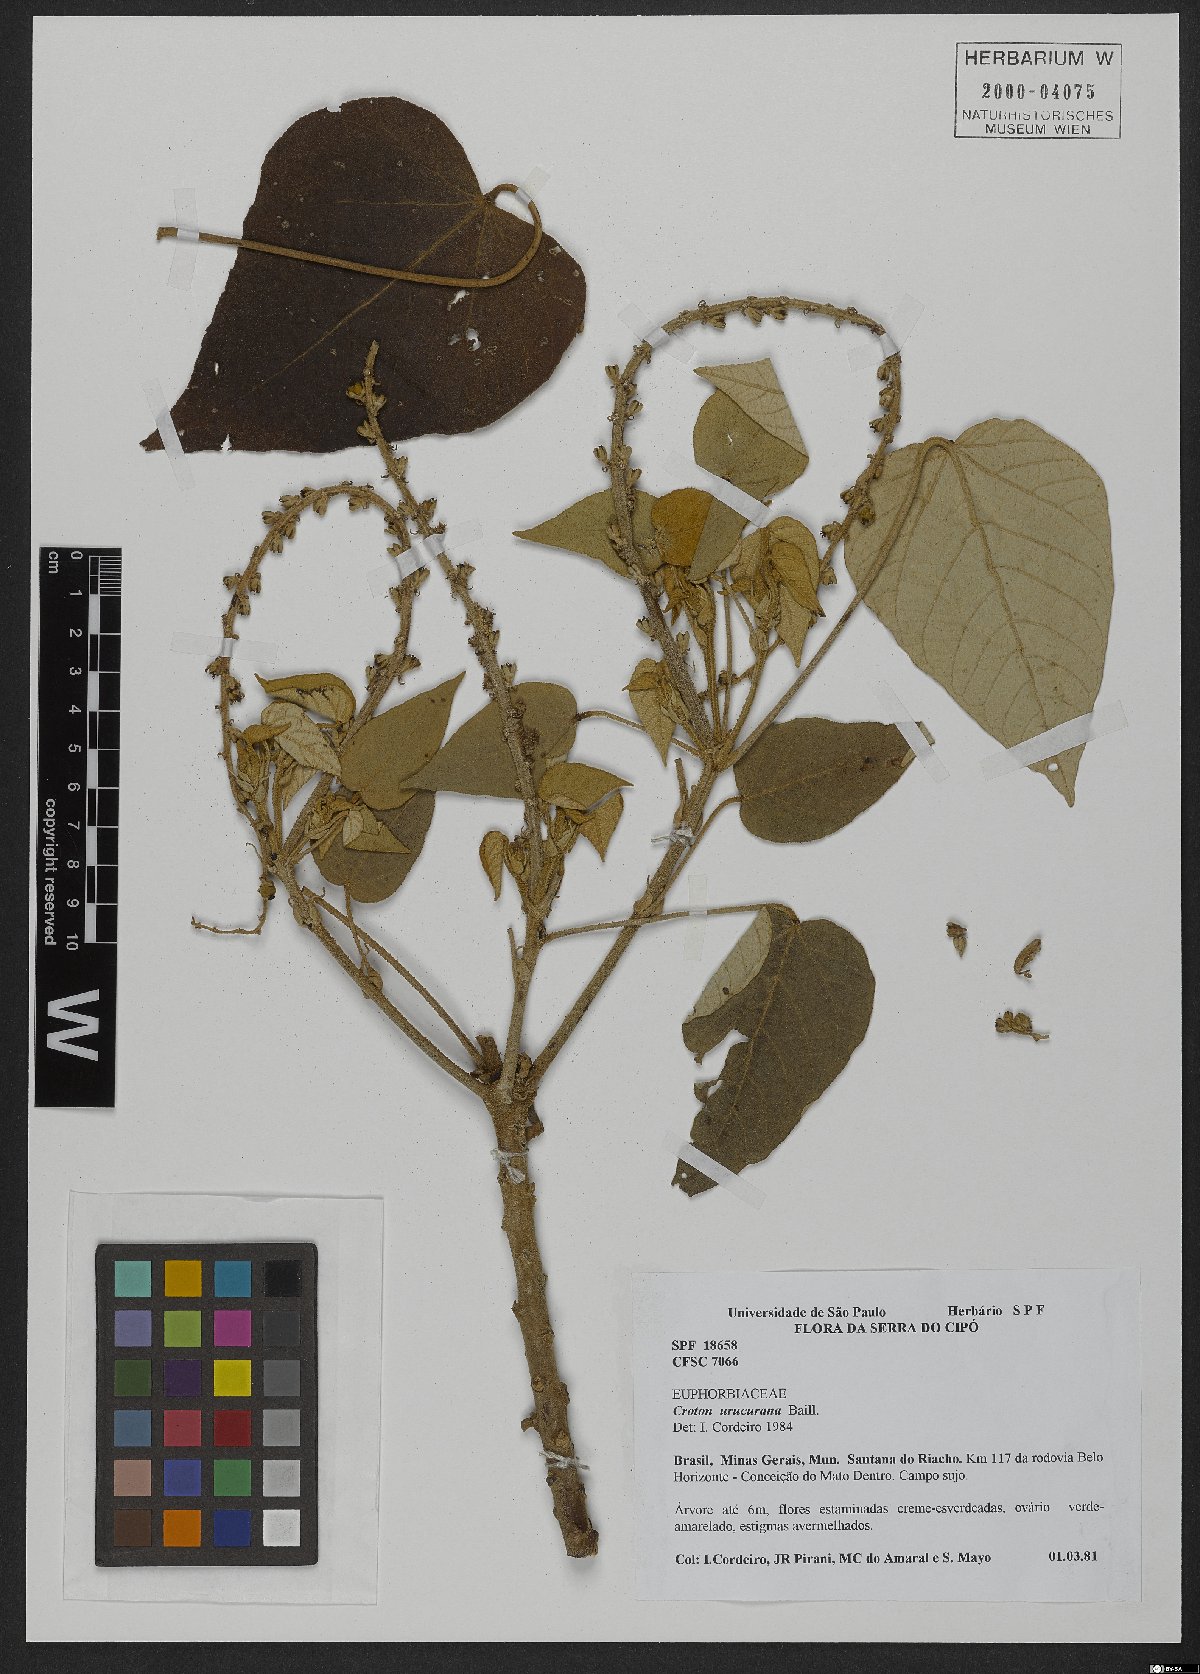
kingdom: Plantae
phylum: Tracheophyta
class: Magnoliopsida
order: Malpighiales
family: Euphorbiaceae
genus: Croton
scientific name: Croton urucurana
